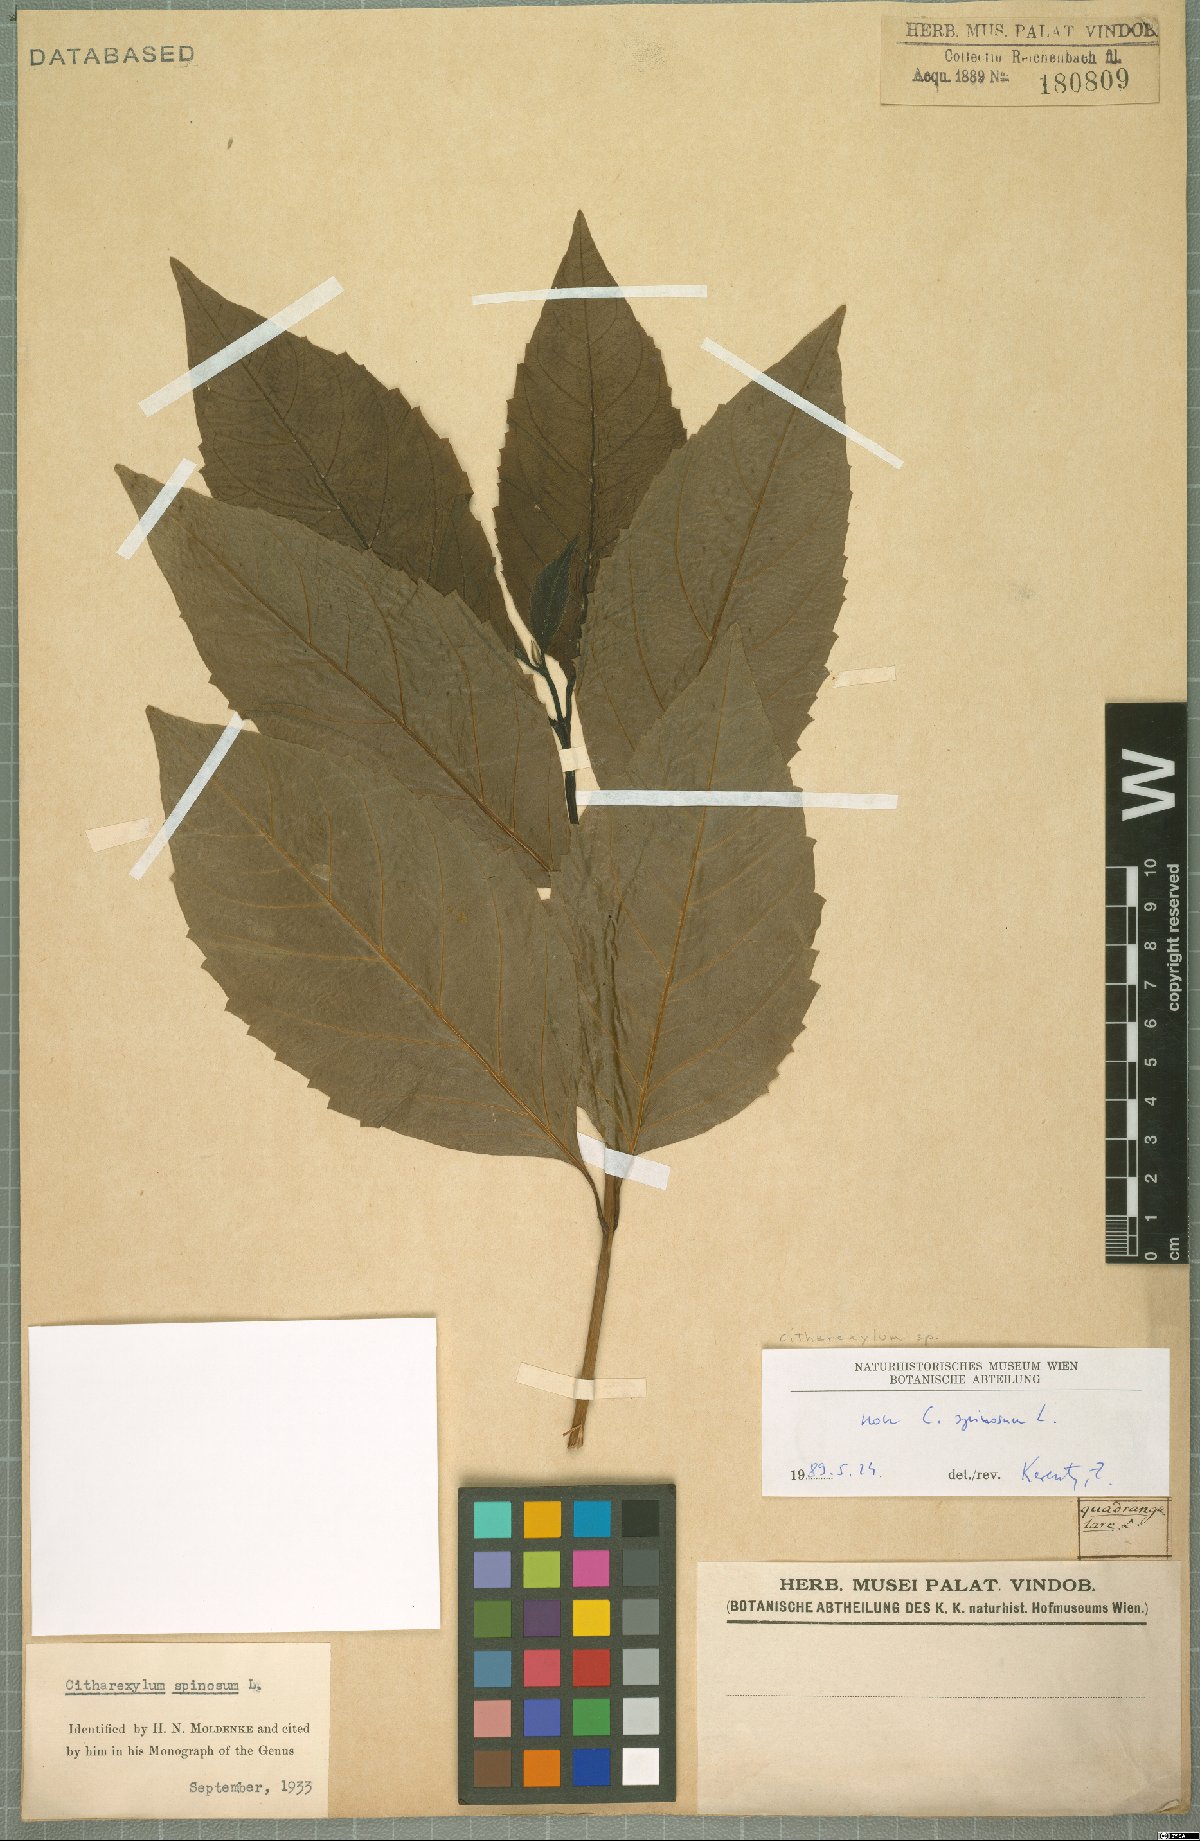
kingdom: Plantae
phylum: Tracheophyta
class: Magnoliopsida
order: Lamiales
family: Verbenaceae
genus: Citharexylum
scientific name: Citharexylum
